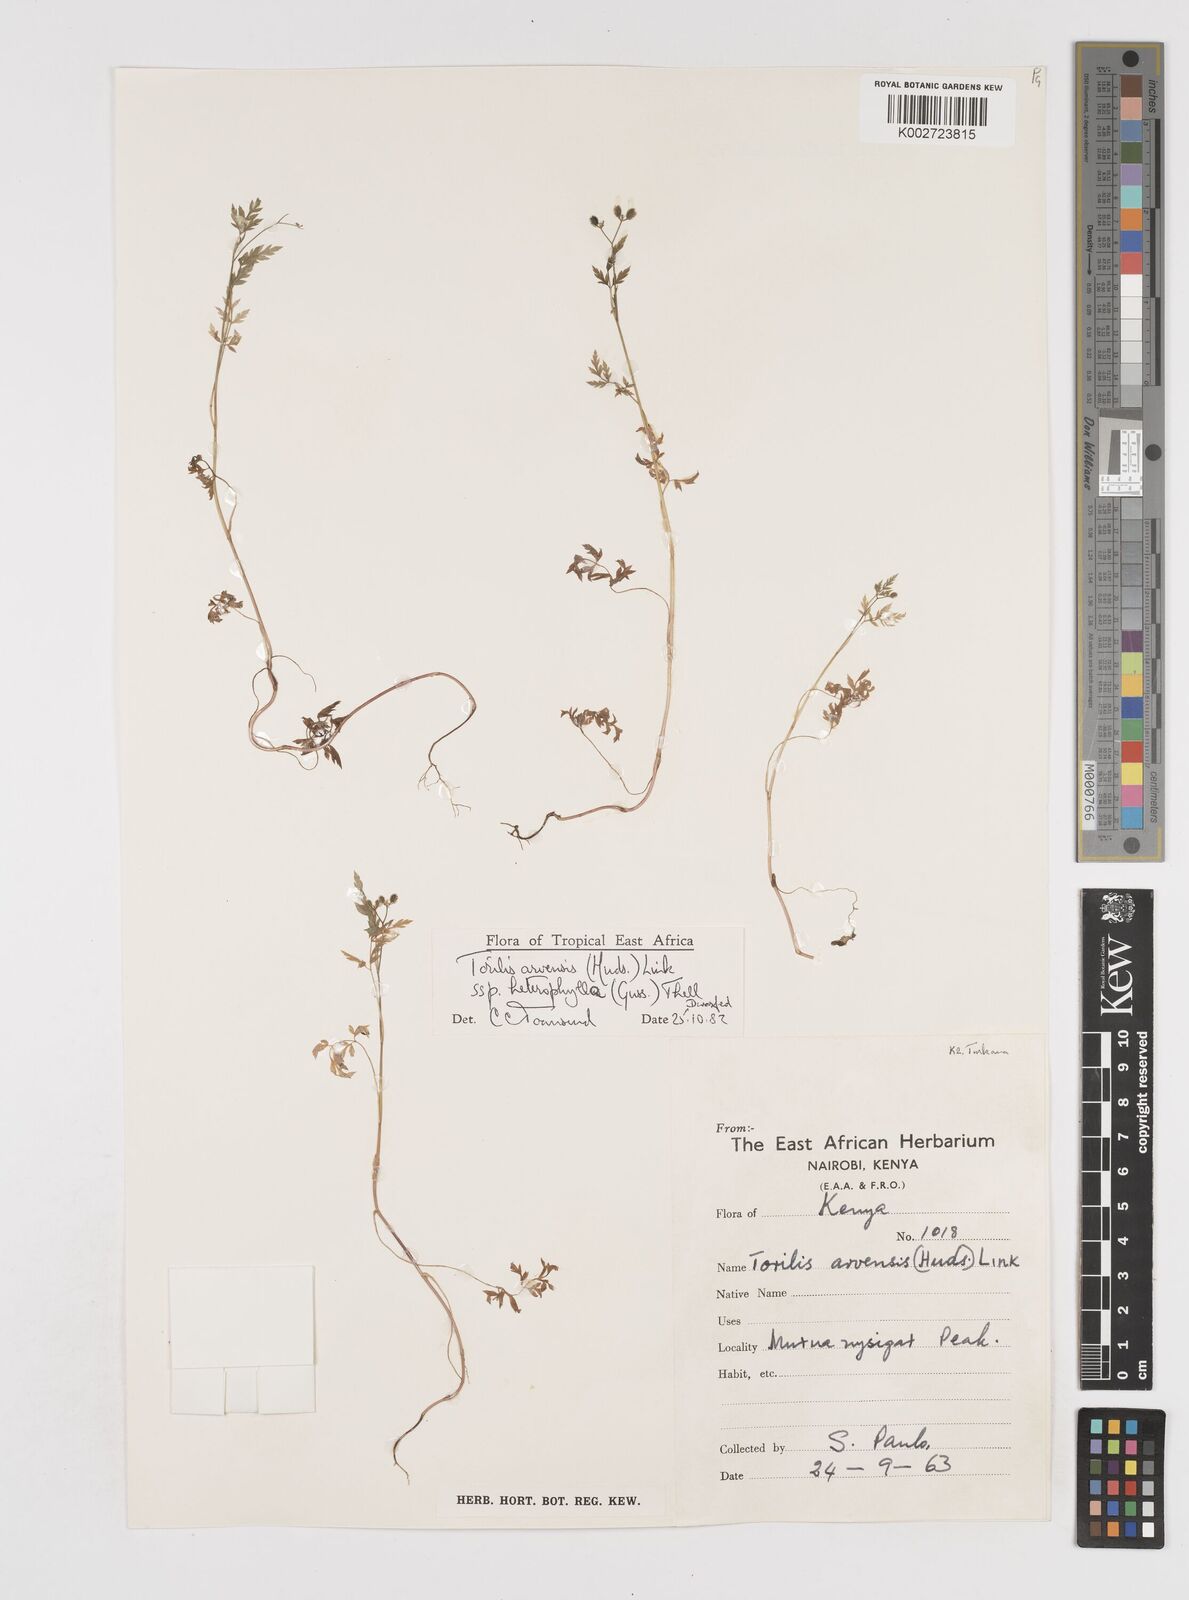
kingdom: Plantae
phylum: Tracheophyta
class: Magnoliopsida
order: Apiales
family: Apiaceae
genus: Torilis
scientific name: Torilis arvensis
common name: Spreading hedge-parsley
